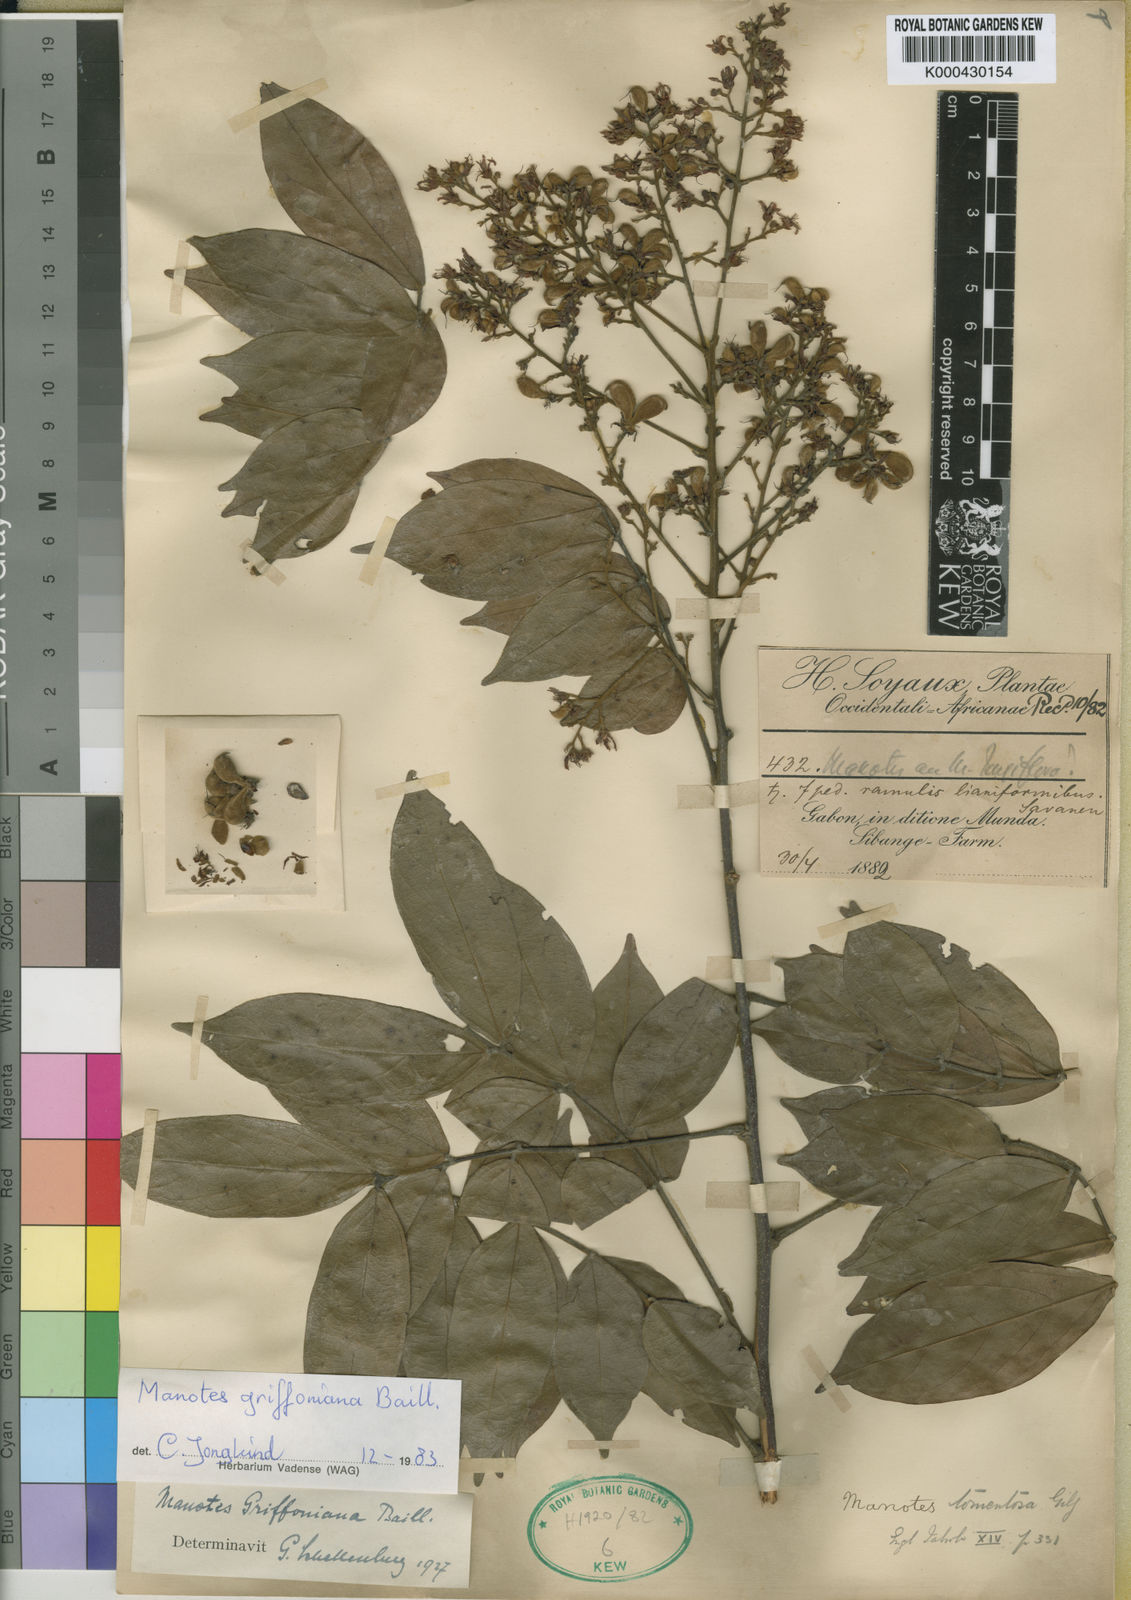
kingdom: Plantae
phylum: Tracheophyta
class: Magnoliopsida
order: Oxalidales
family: Connaraceae
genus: Manotes
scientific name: Manotes expansa
